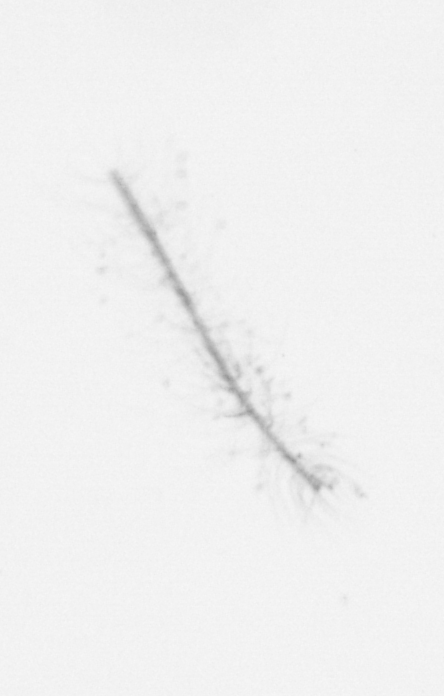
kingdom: Chromista
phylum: Ochrophyta
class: Bacillariophyceae
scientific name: Bacillariophyceae
